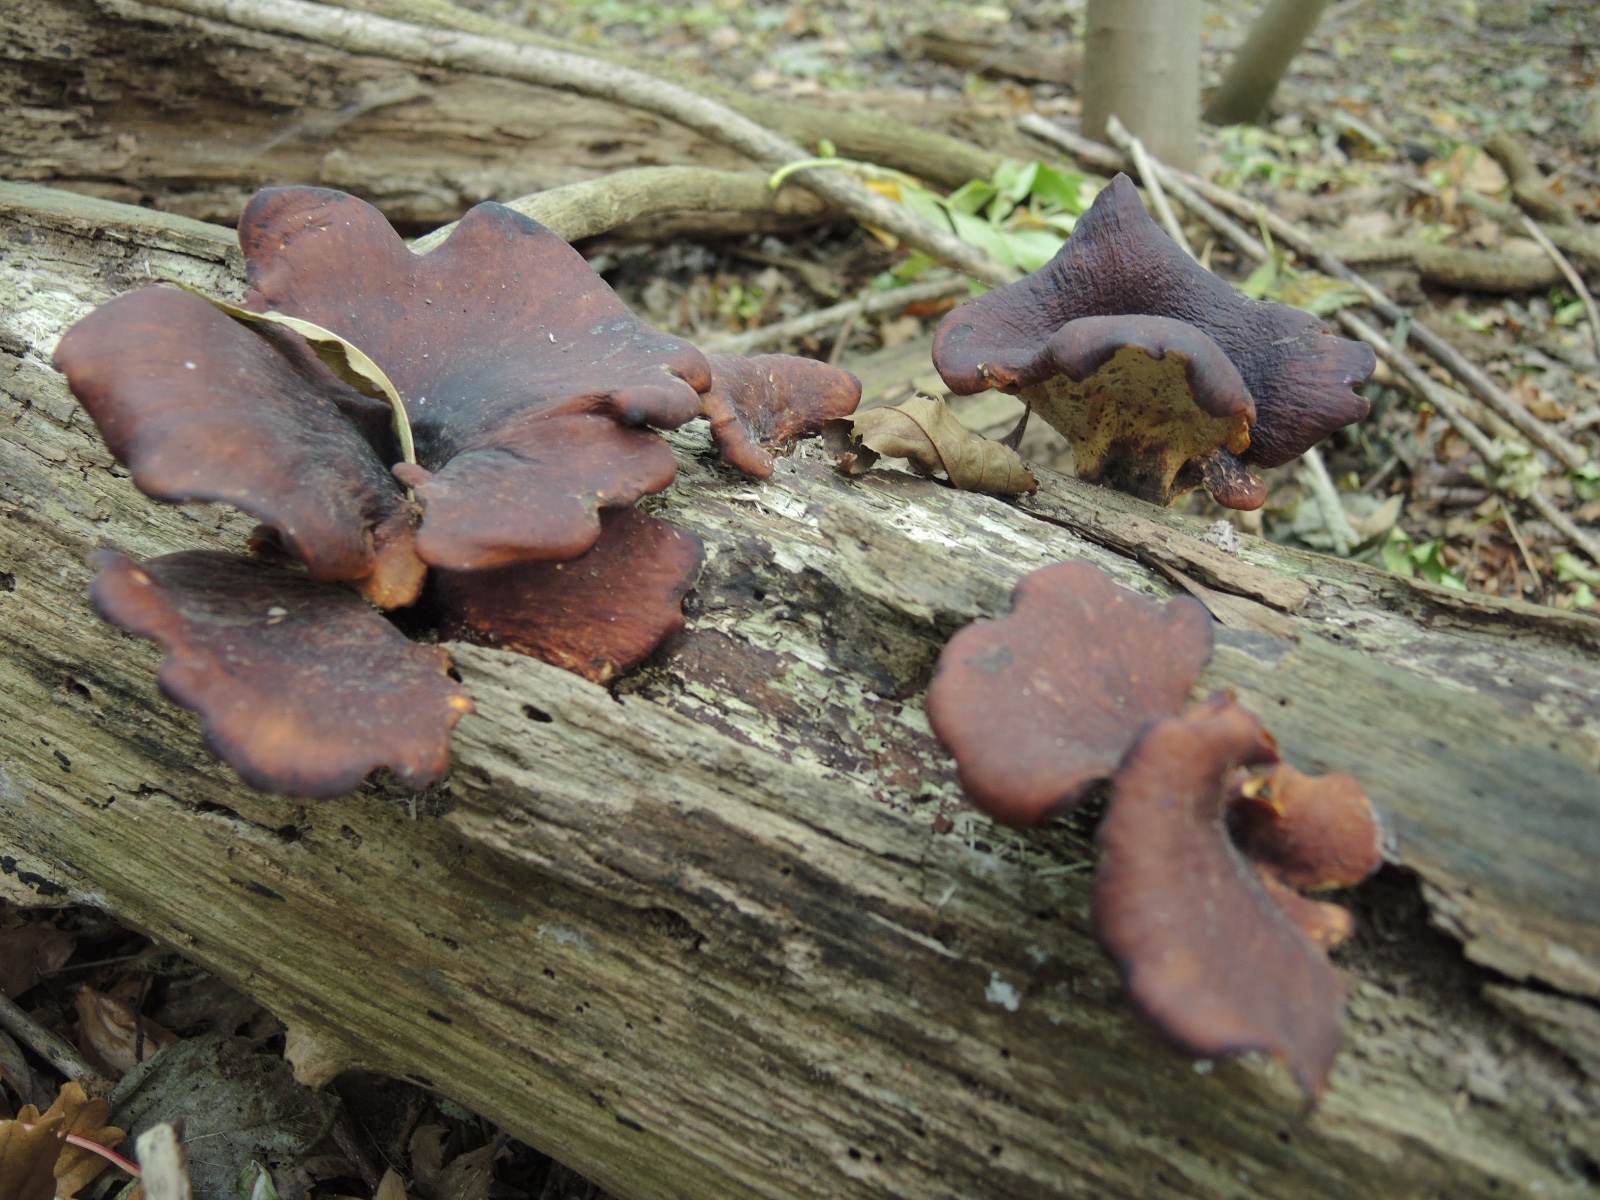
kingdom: Fungi
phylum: Basidiomycota
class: Agaricomycetes
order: Polyporales
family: Polyporaceae
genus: Picipes
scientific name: Picipes badius
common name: kastaniebrun stilkporesvamp
